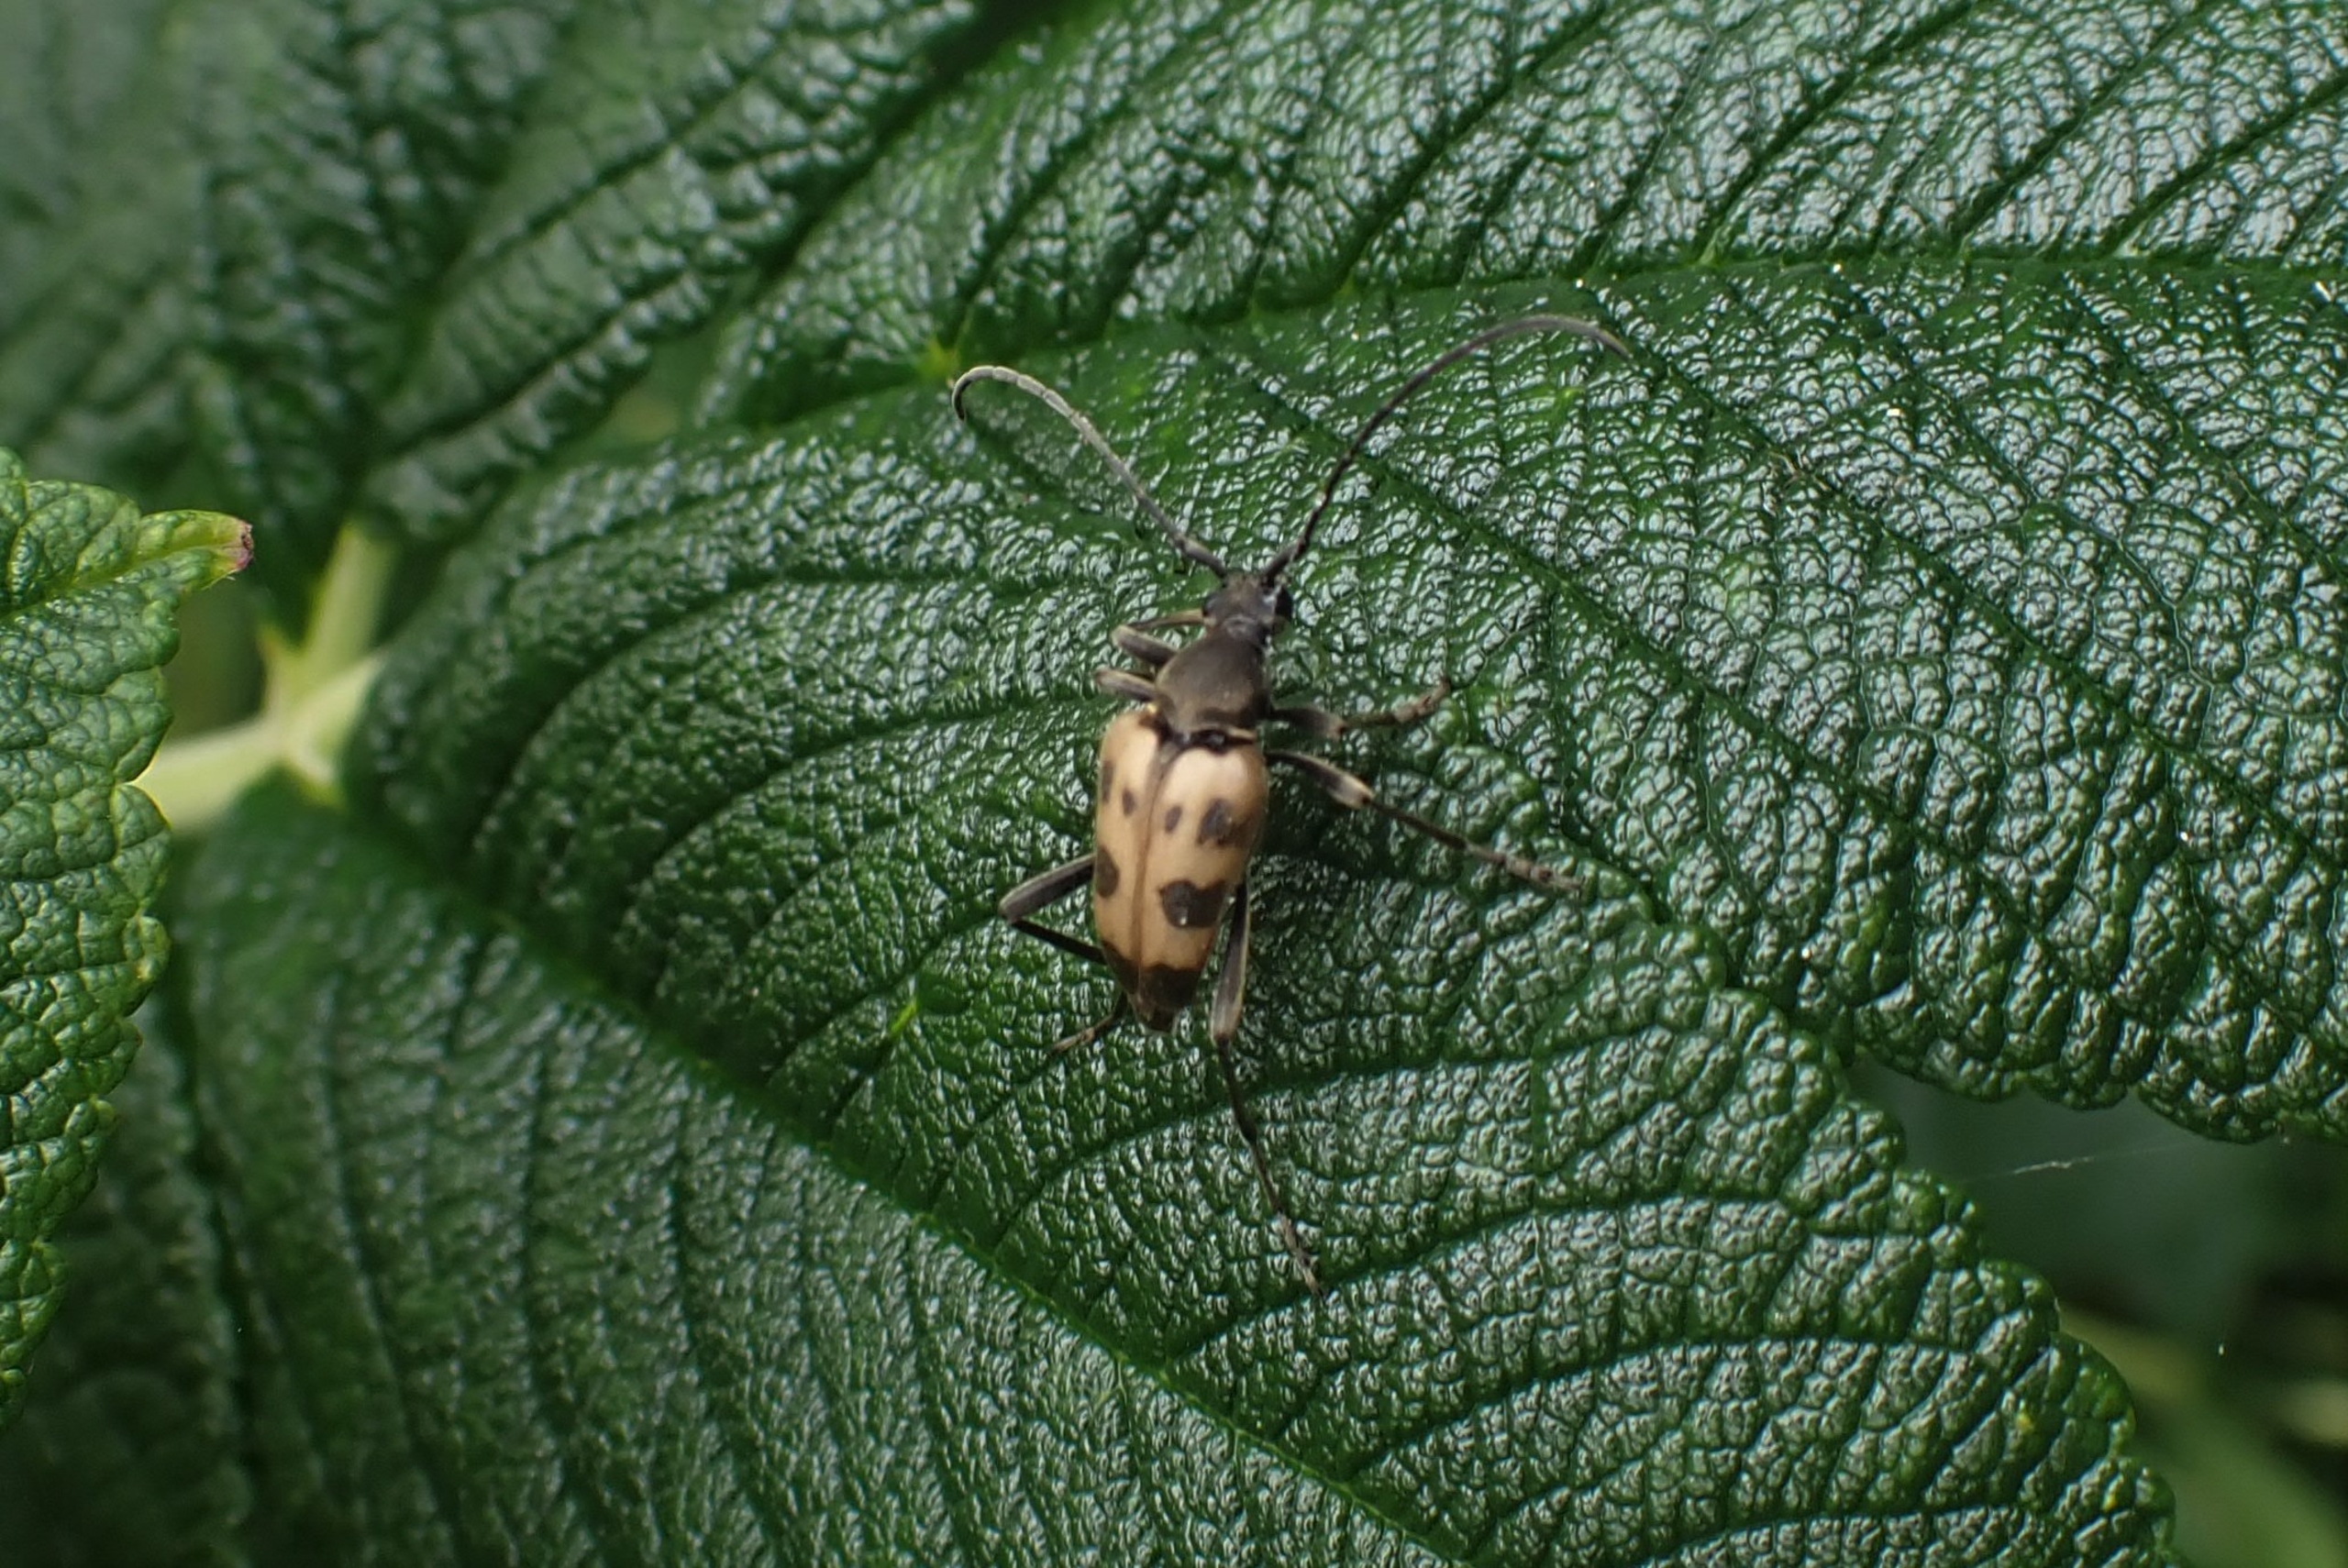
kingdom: Animalia
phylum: Arthropoda
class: Insecta
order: Coleoptera
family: Cerambycidae
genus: Pachytodes
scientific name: Pachytodes cerambyciformis
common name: Jysk blomsterbuk
